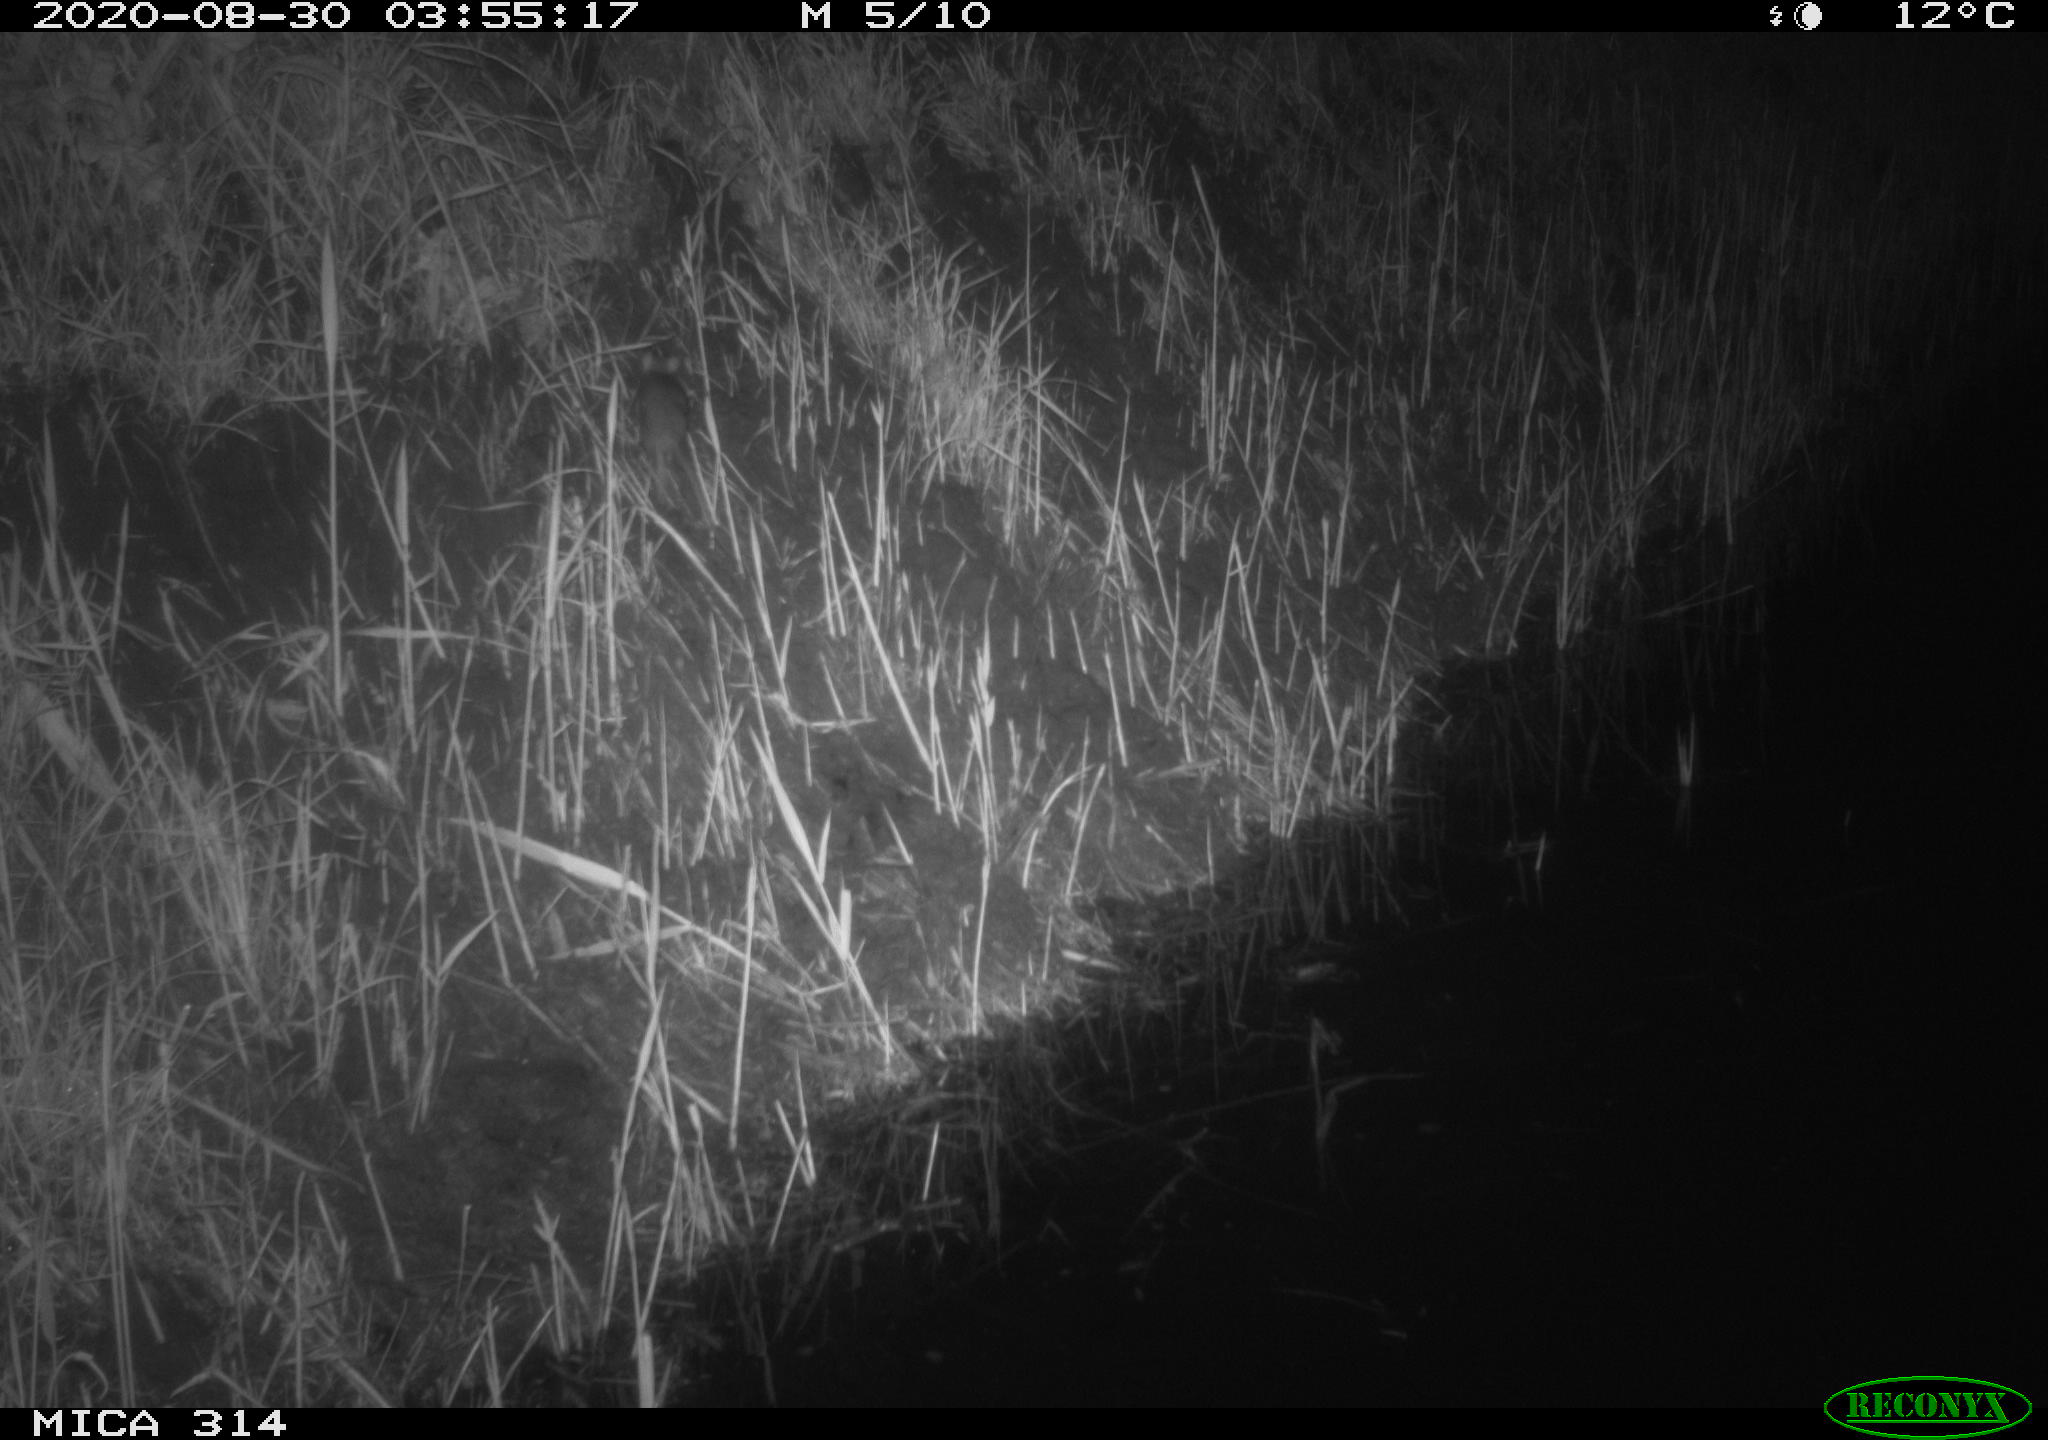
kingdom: Animalia
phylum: Chordata
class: Mammalia
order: Rodentia
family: Muridae
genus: Rattus
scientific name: Rattus norvegicus
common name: Brown rat
